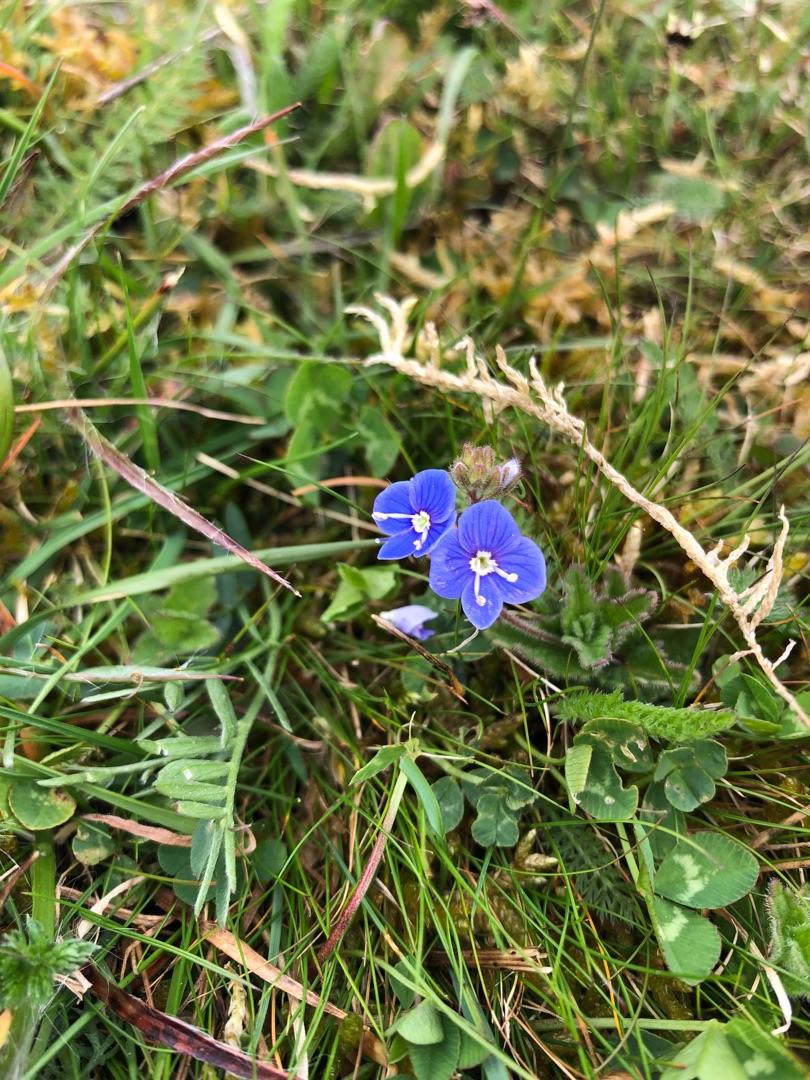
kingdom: Plantae
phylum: Tracheophyta
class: Magnoliopsida
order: Lamiales
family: Plantaginaceae
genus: Veronica
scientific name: Veronica chamaedrys
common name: Tveskægget ærenpris
